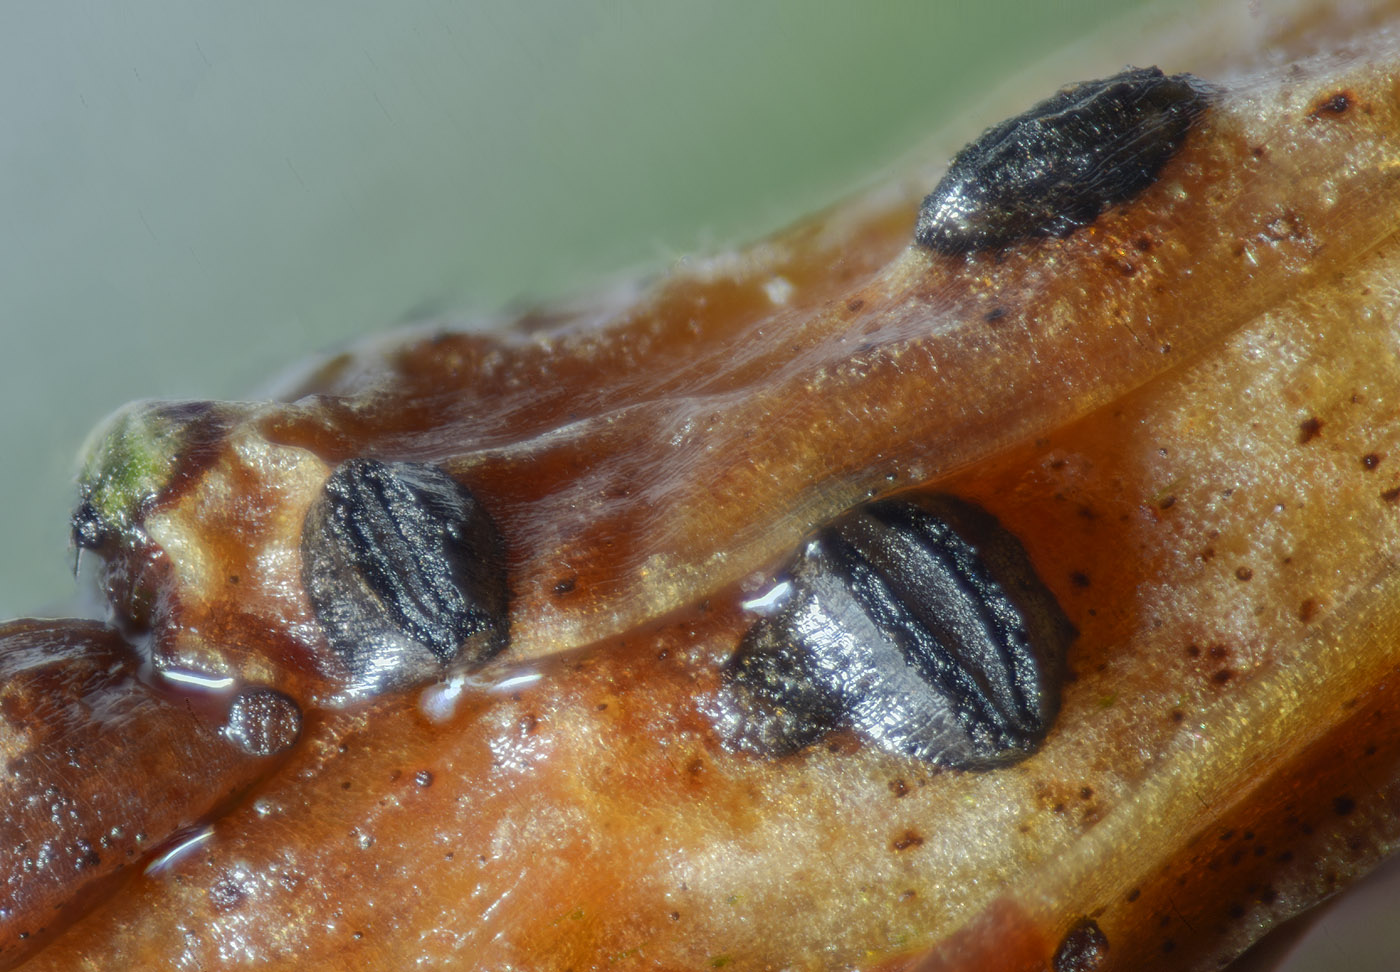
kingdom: Fungi
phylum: Ascomycota
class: Leotiomycetes
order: Rhytismatales
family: Rhytismataceae
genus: Terriera
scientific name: Terriera cladophila
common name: blåbær-fureplet
